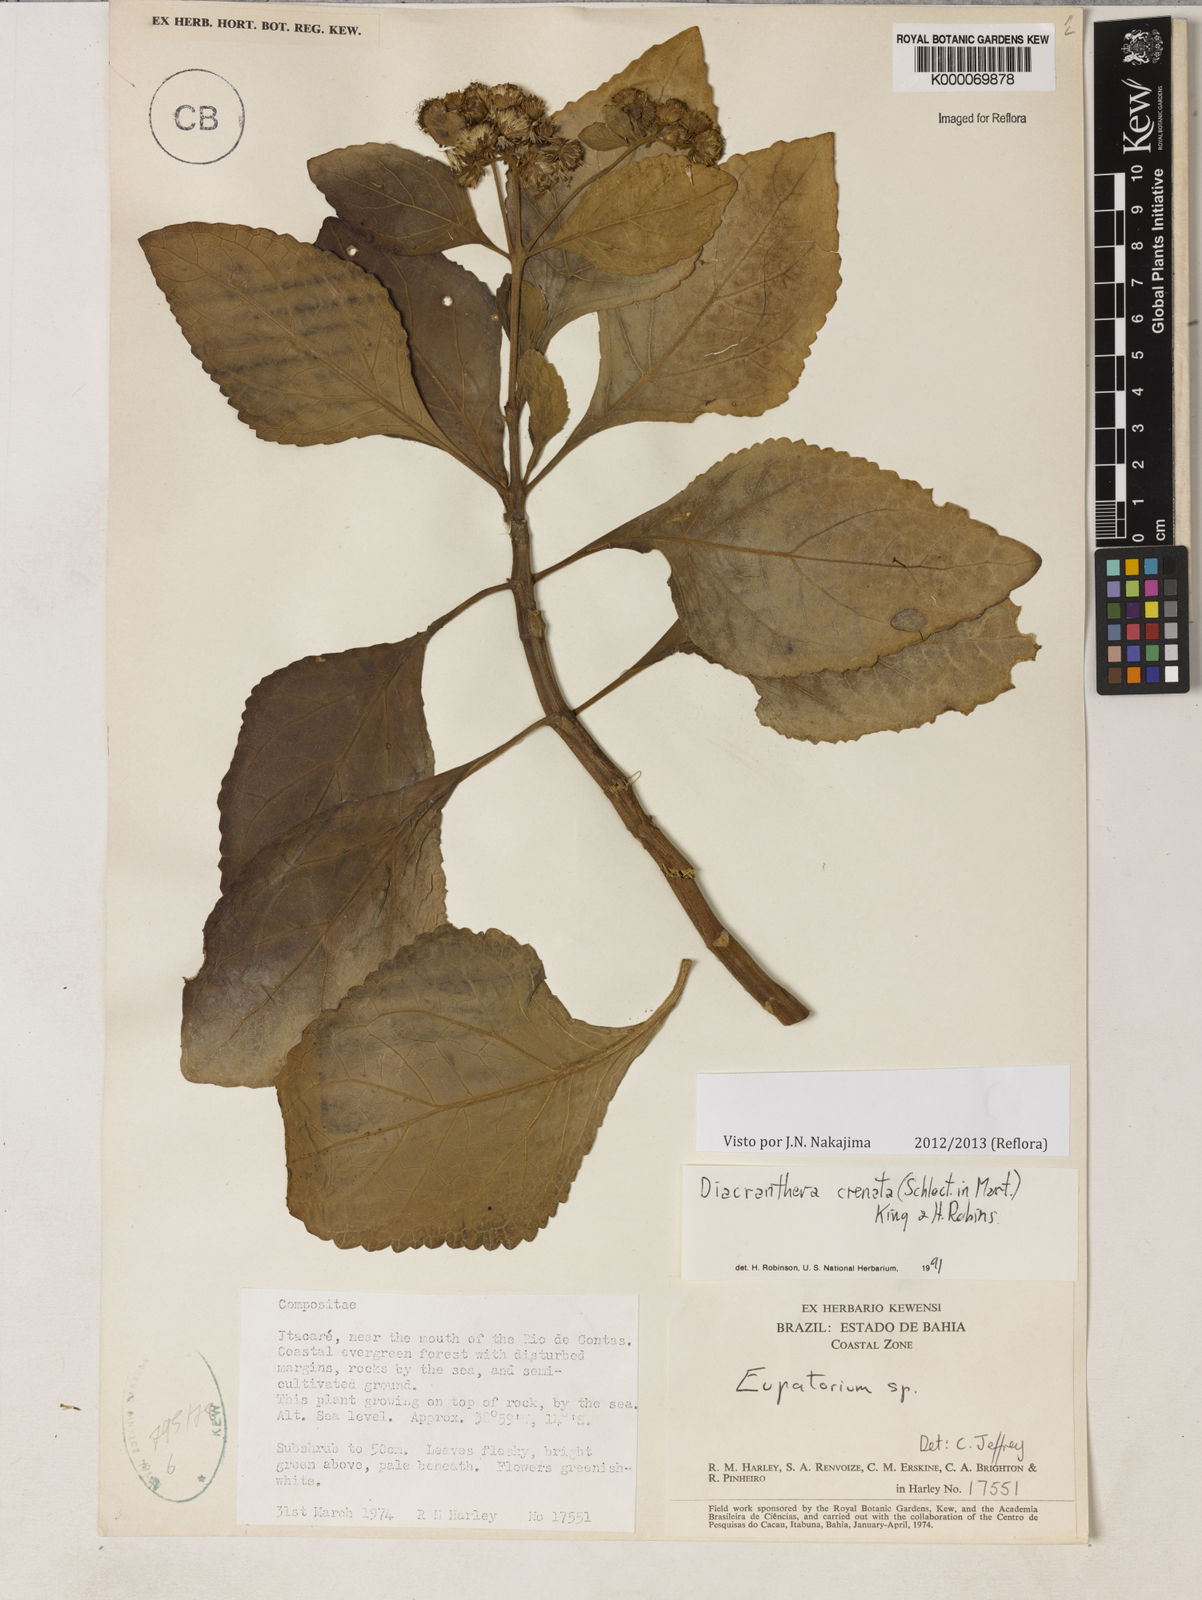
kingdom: Plantae
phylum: Tracheophyta
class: Magnoliopsida
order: Asterales
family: Asteraceae
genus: Diacranthera
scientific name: Diacranthera crenata
